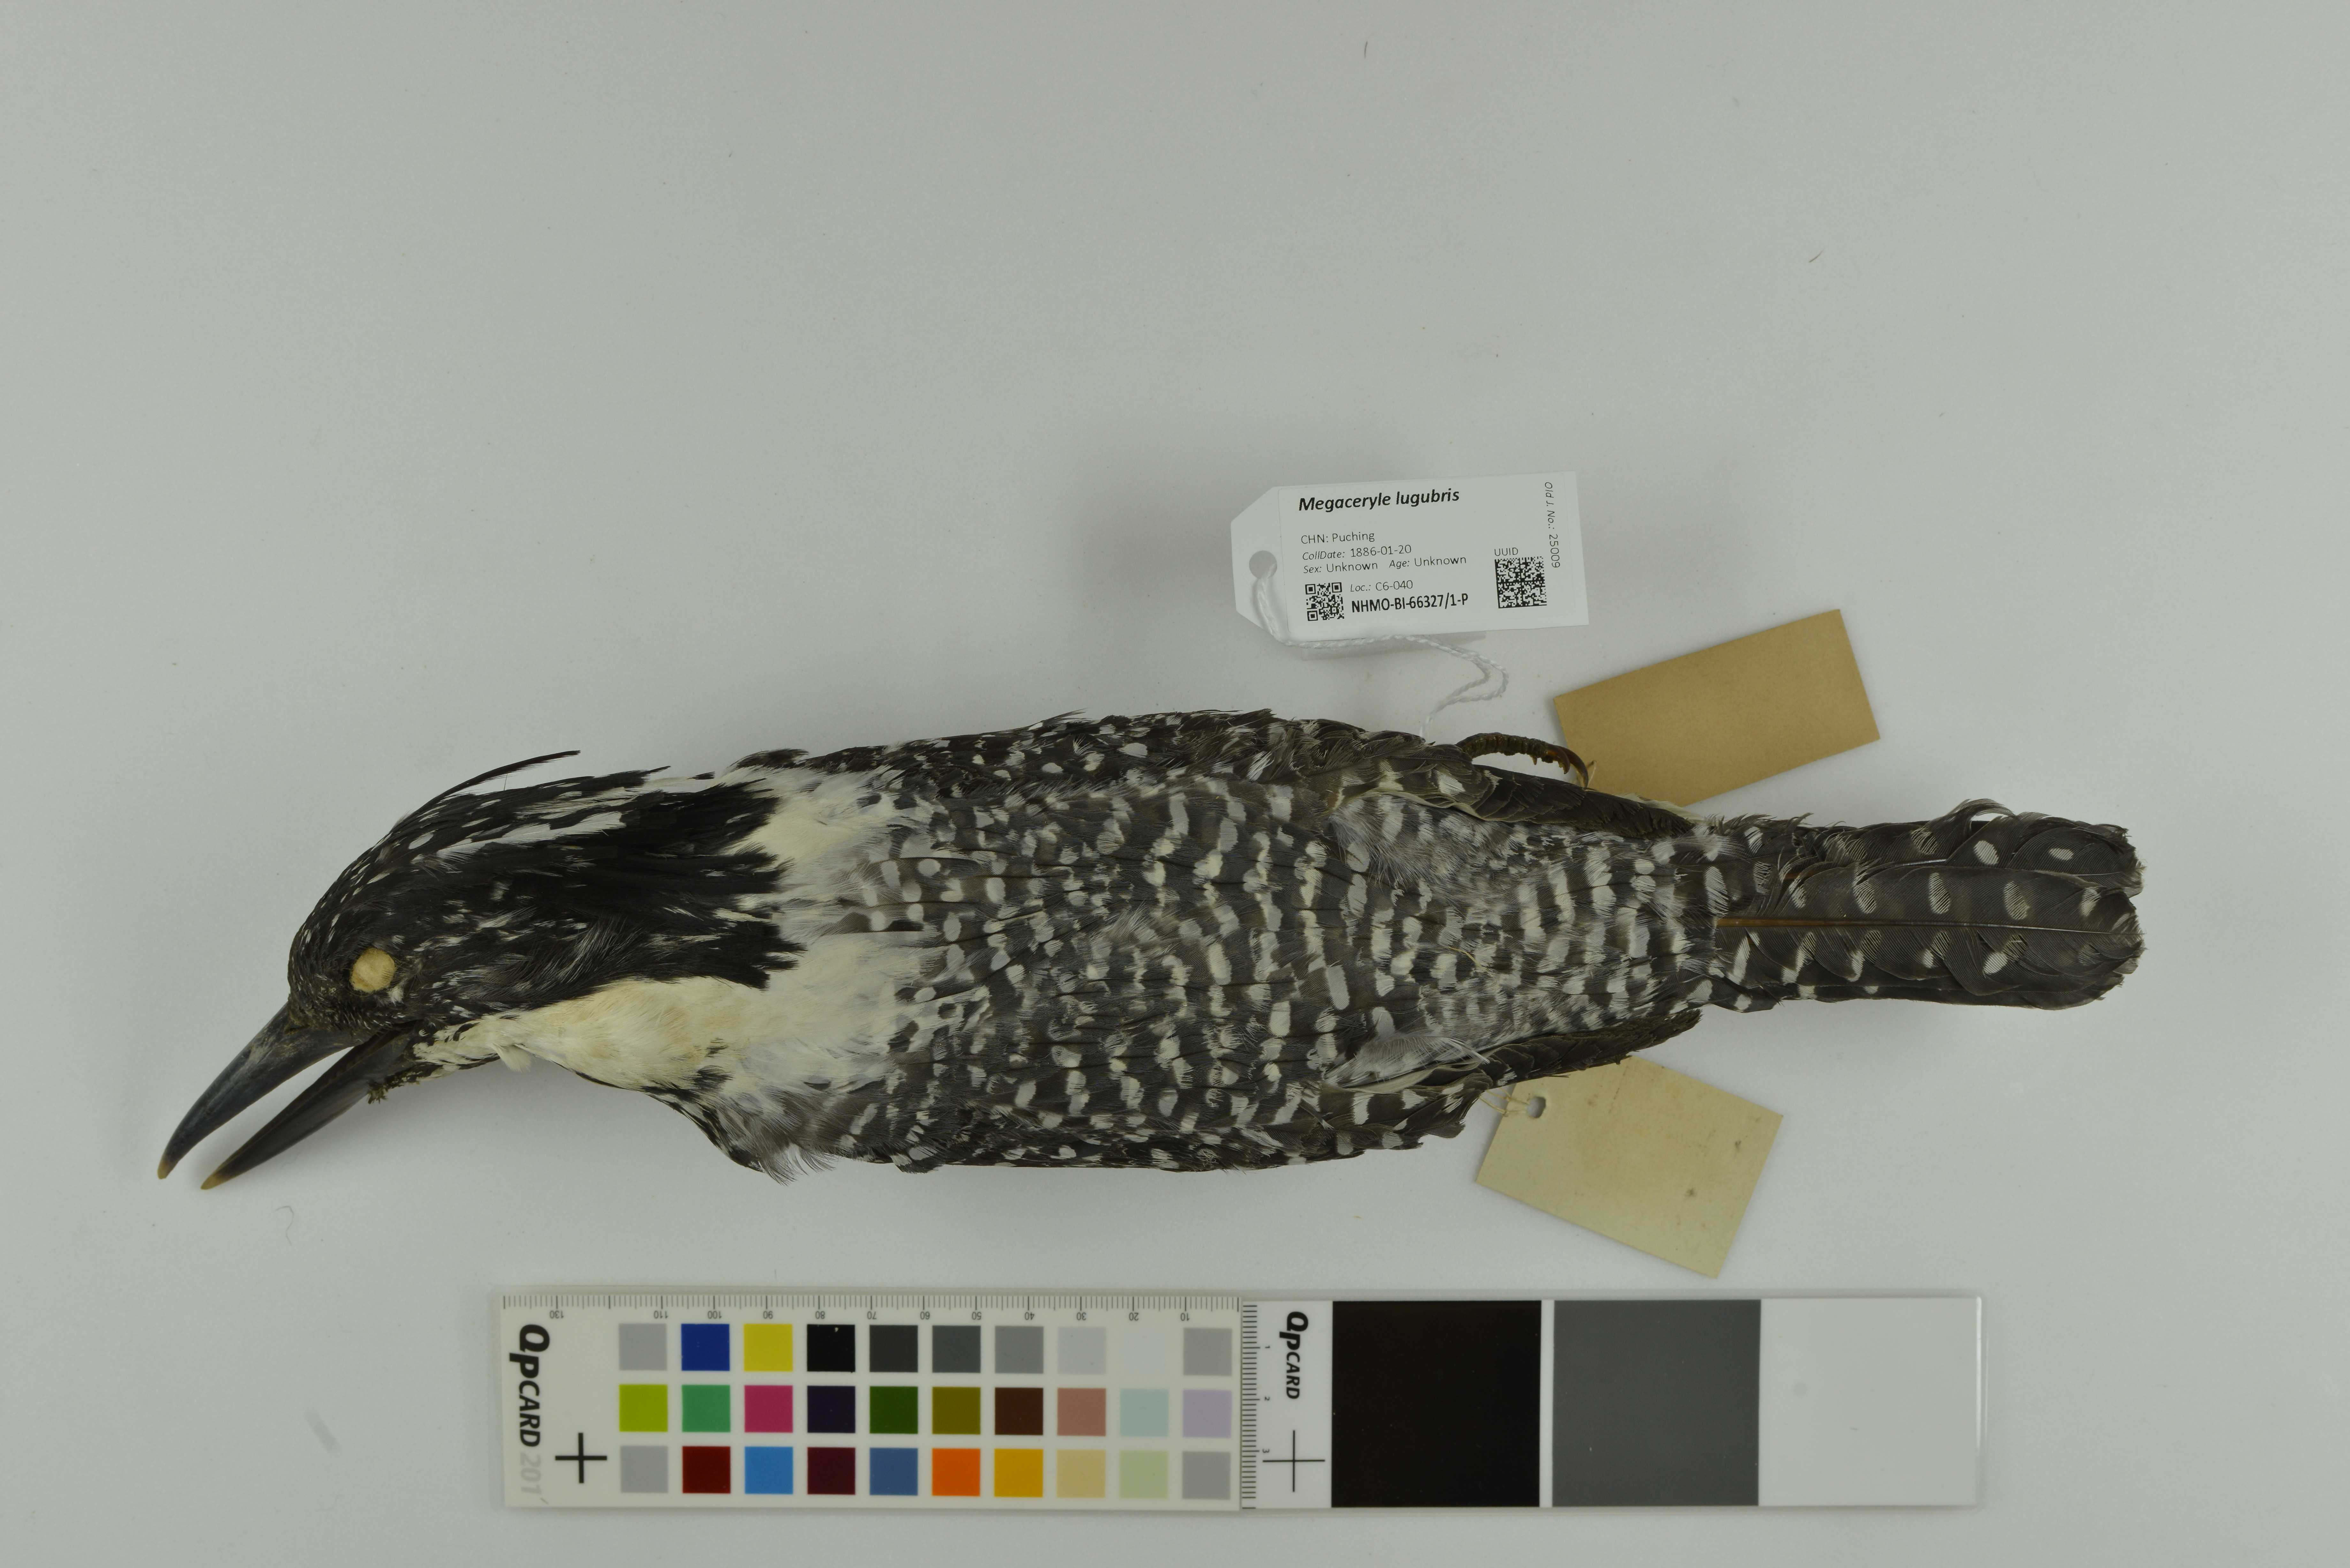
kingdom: Animalia
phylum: Chordata
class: Aves
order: Coraciiformes
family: Alcedinidae
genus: Megaceryle
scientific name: Megaceryle lugubris
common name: Crested kingfisher
